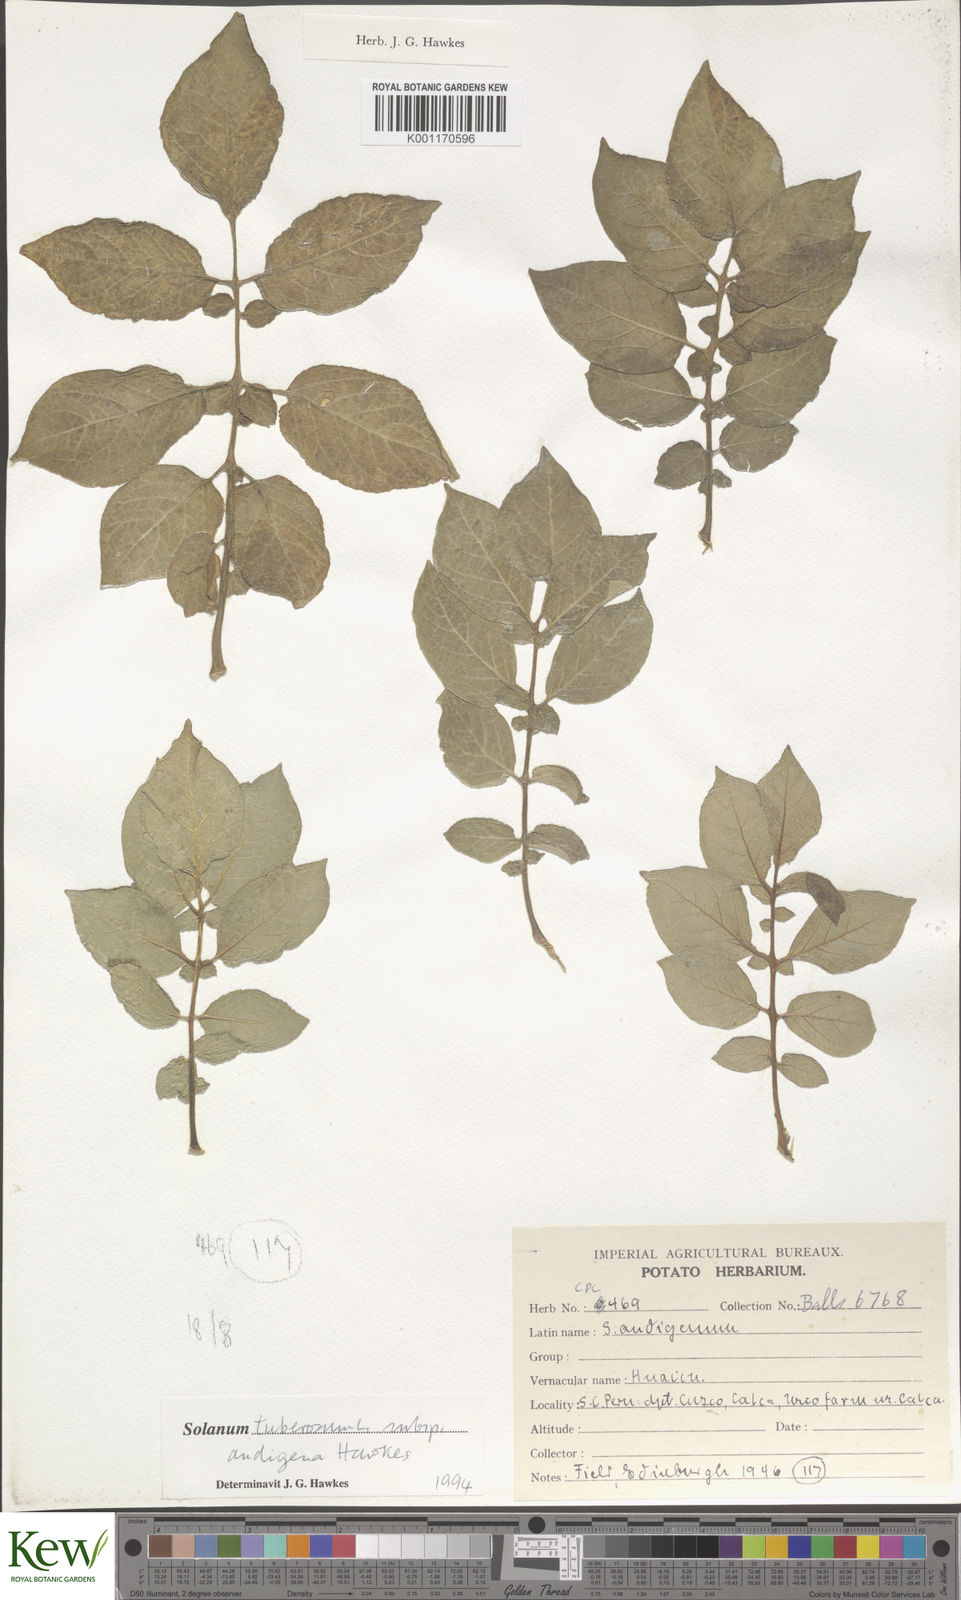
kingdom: Plantae
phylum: Tracheophyta
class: Magnoliopsida
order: Solanales
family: Solanaceae
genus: Solanum
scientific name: Solanum tuberosum
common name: Potato
